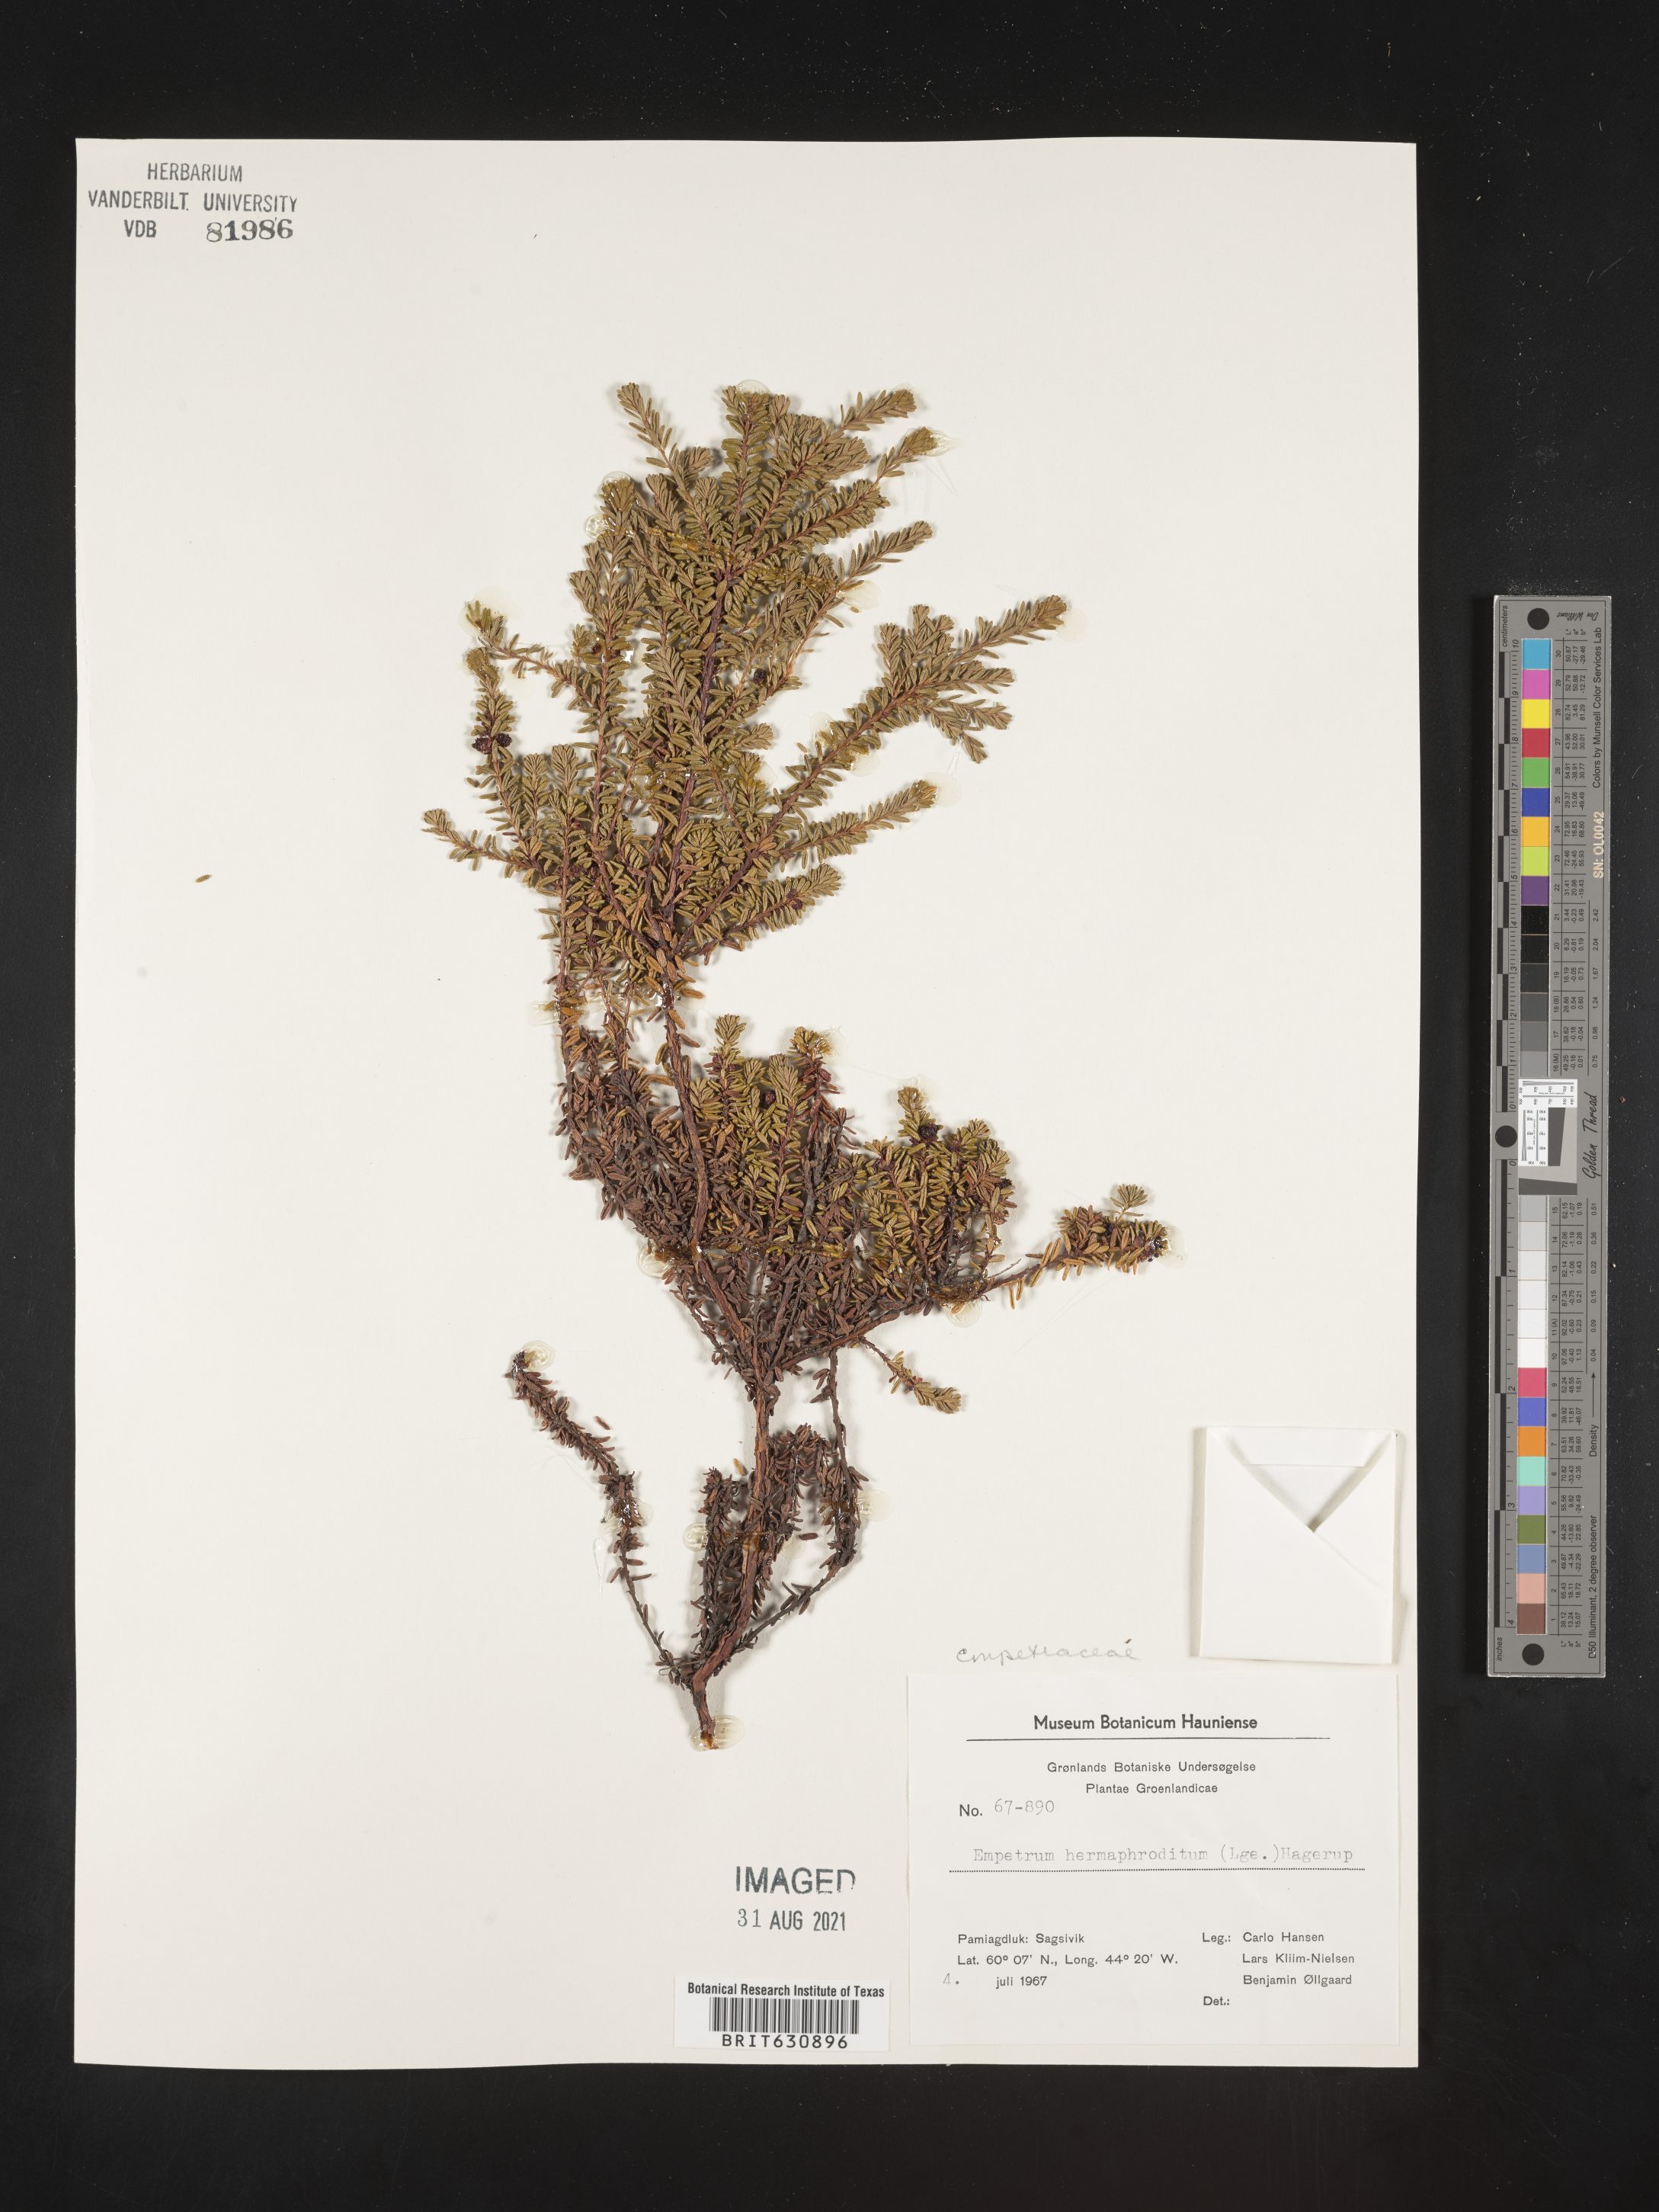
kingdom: Plantae
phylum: Tracheophyta
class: Magnoliopsida
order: Ericales
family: Ericaceae
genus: Empetrum
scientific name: Empetrum
